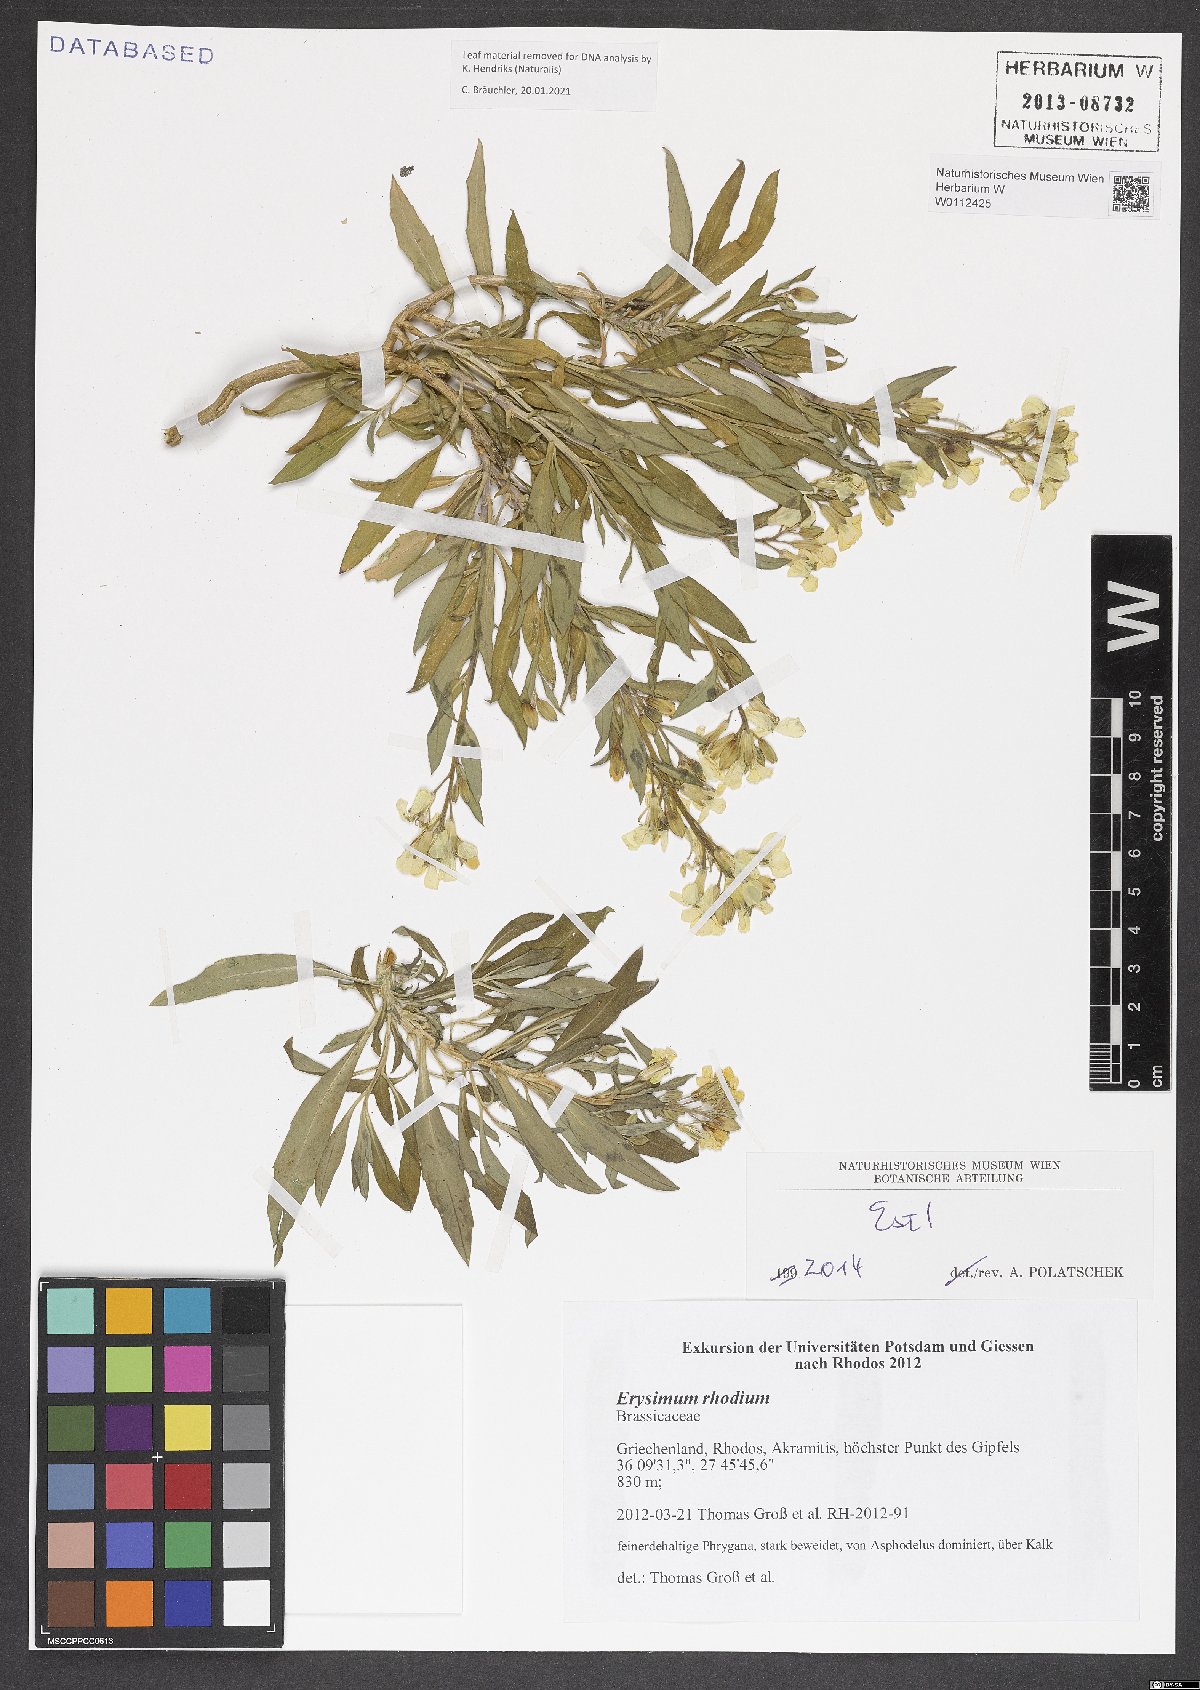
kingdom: Plantae
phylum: Tracheophyta
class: Magnoliopsida
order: Brassicales
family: Brassicaceae
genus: Erysimum
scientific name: Erysimum rhodium
